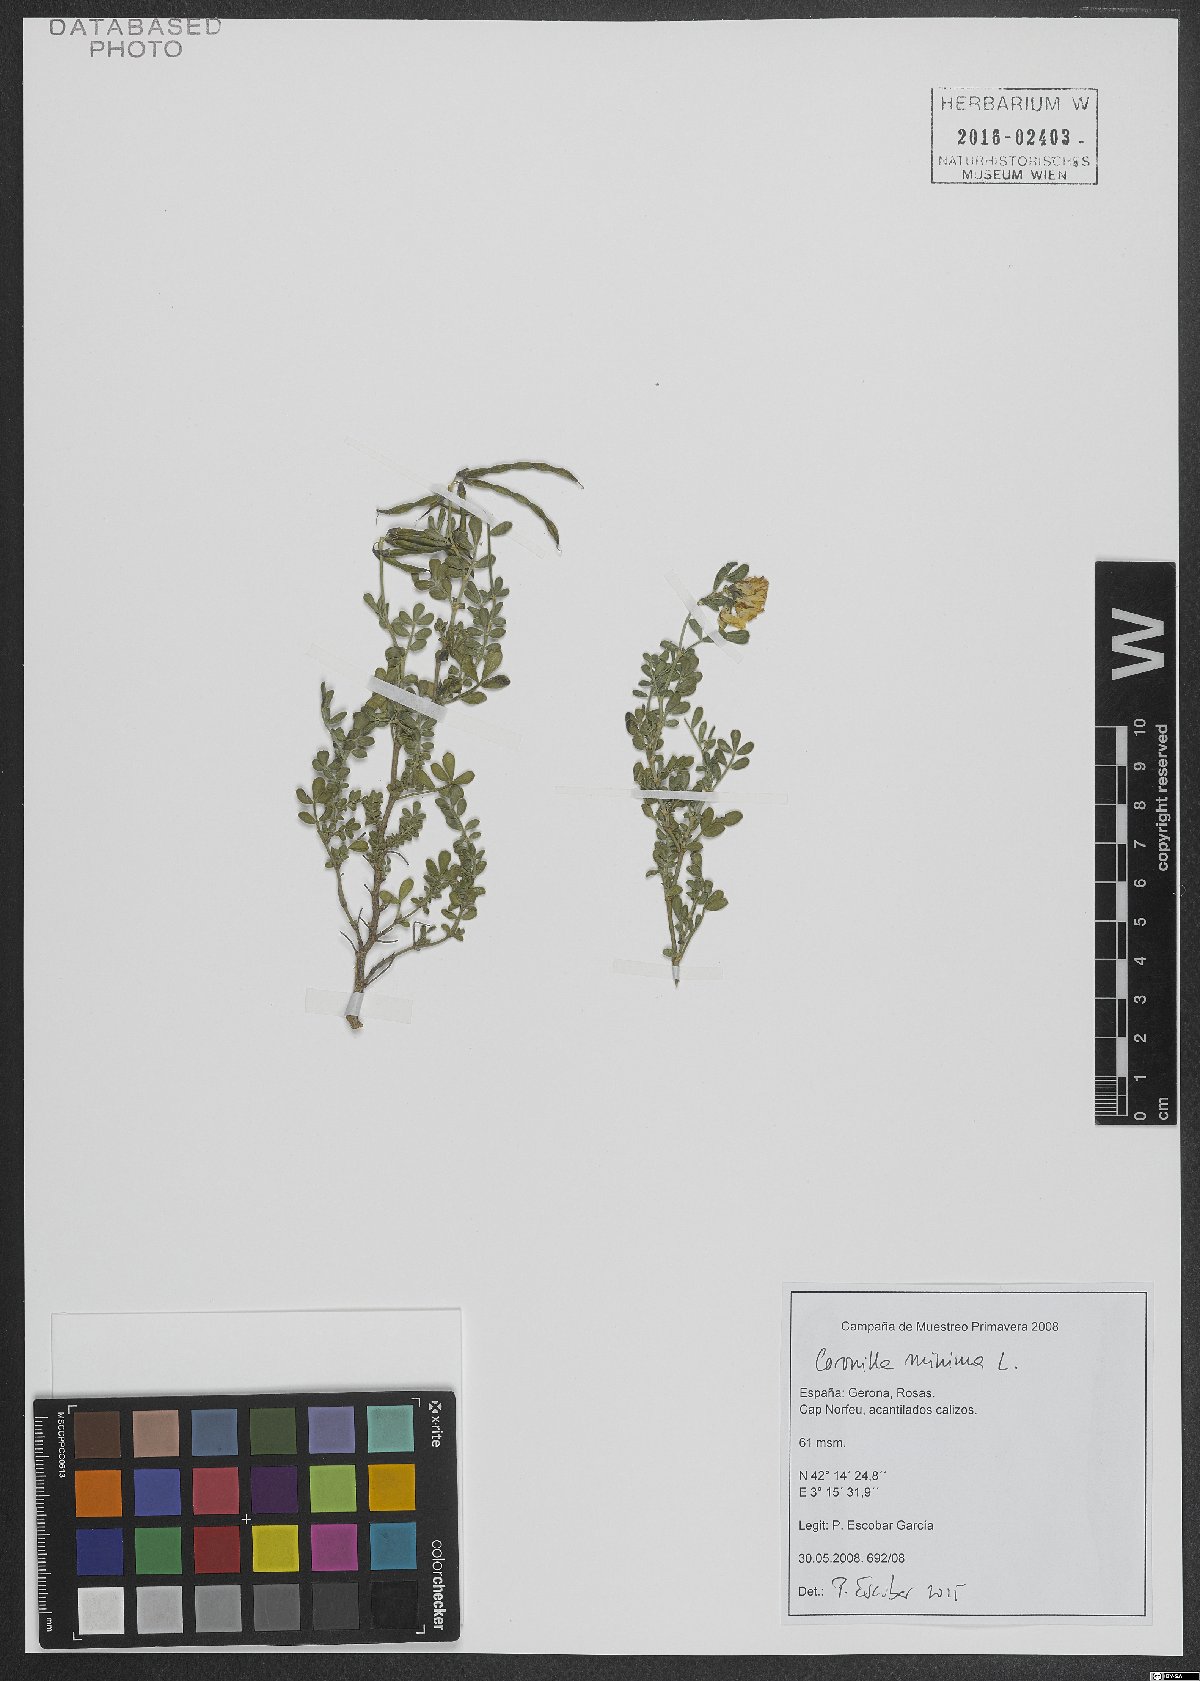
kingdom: Plantae
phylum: Tracheophyta
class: Magnoliopsida
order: Fabales
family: Fabaceae
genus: Coronilla
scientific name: Coronilla minima
